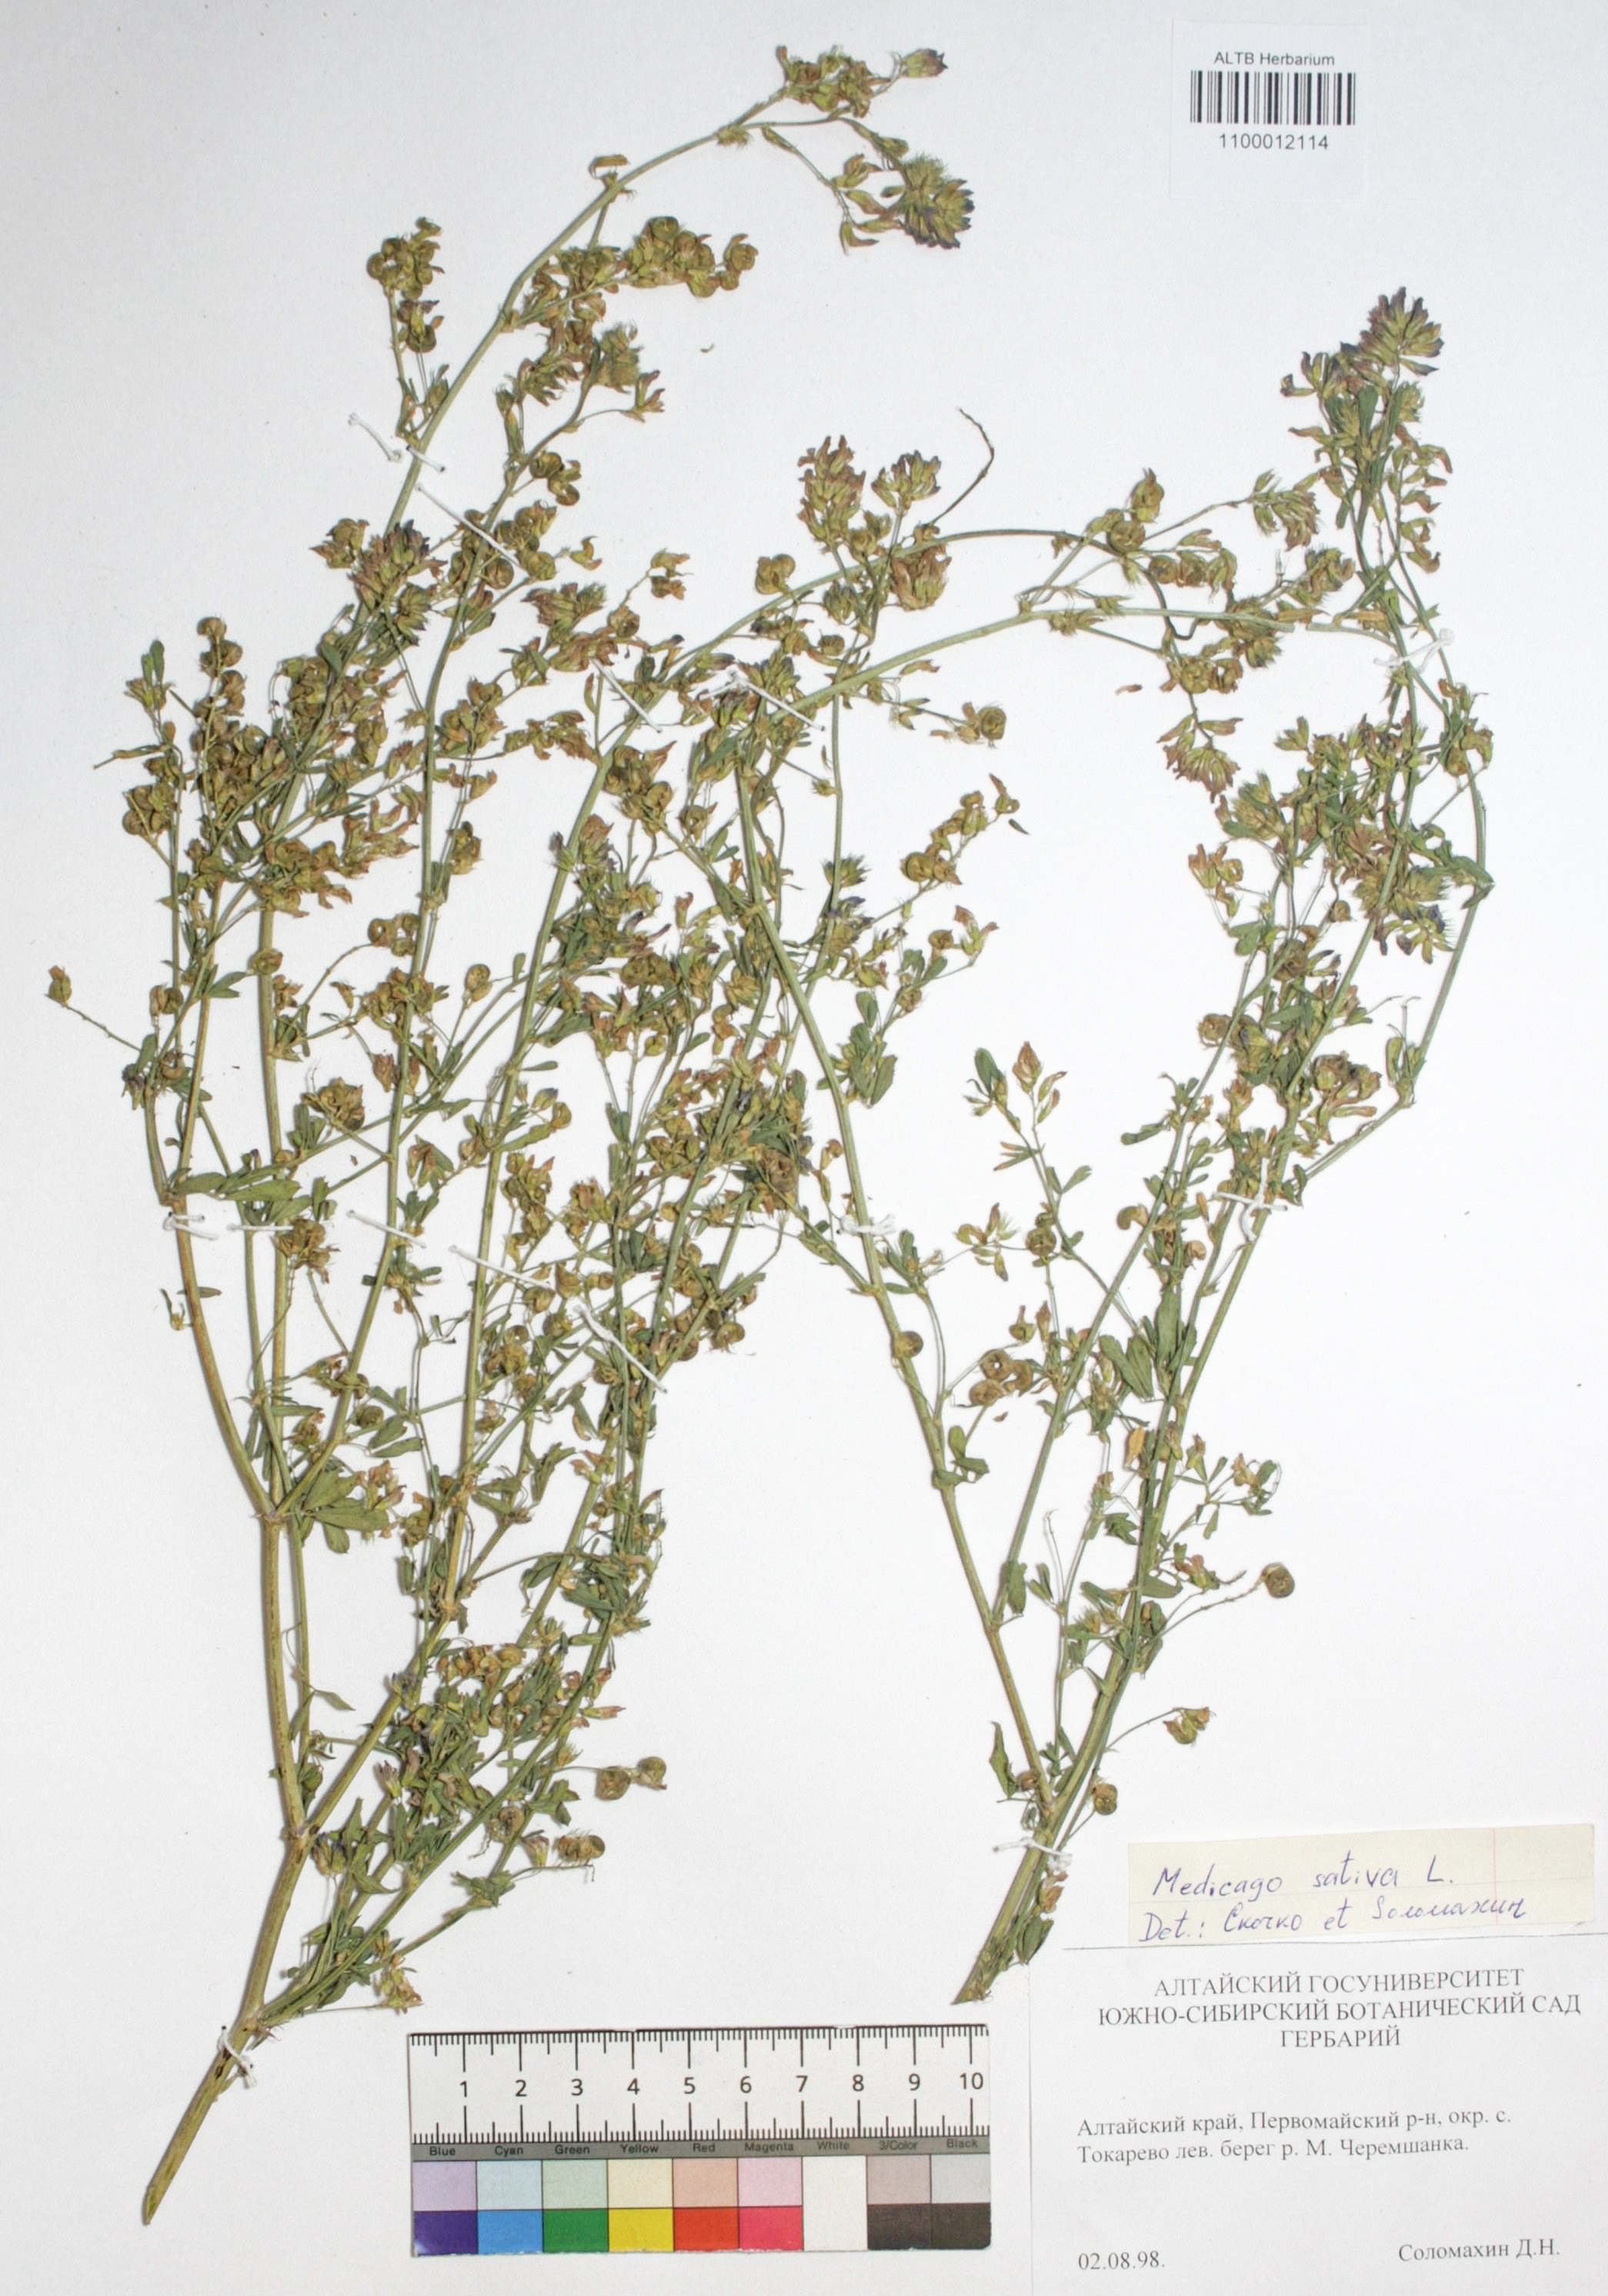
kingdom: Plantae
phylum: Tracheophyta
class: Magnoliopsida
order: Fabales
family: Fabaceae
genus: Medicago
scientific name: Medicago sativa
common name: Alfalfa
